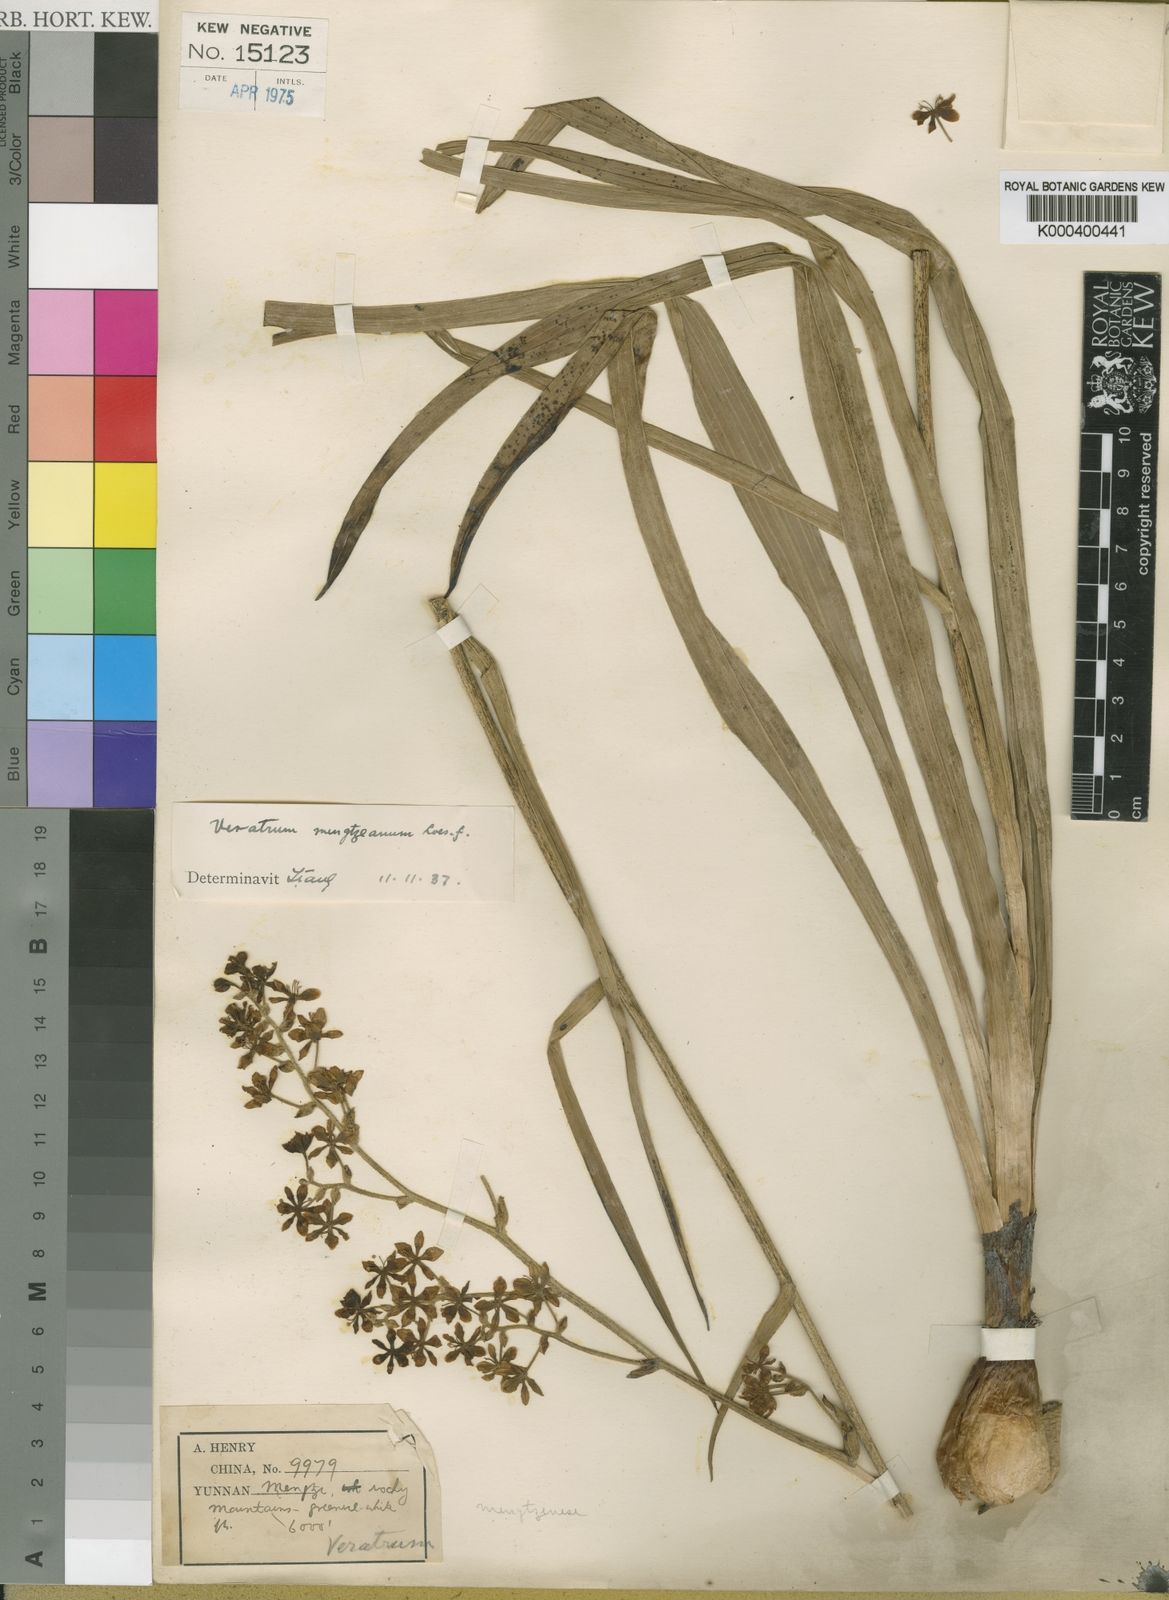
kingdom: Plantae
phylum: Tracheophyta
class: Liliopsida
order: Liliales
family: Melanthiaceae
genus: Veratrum
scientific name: Veratrum mengtzeanum
